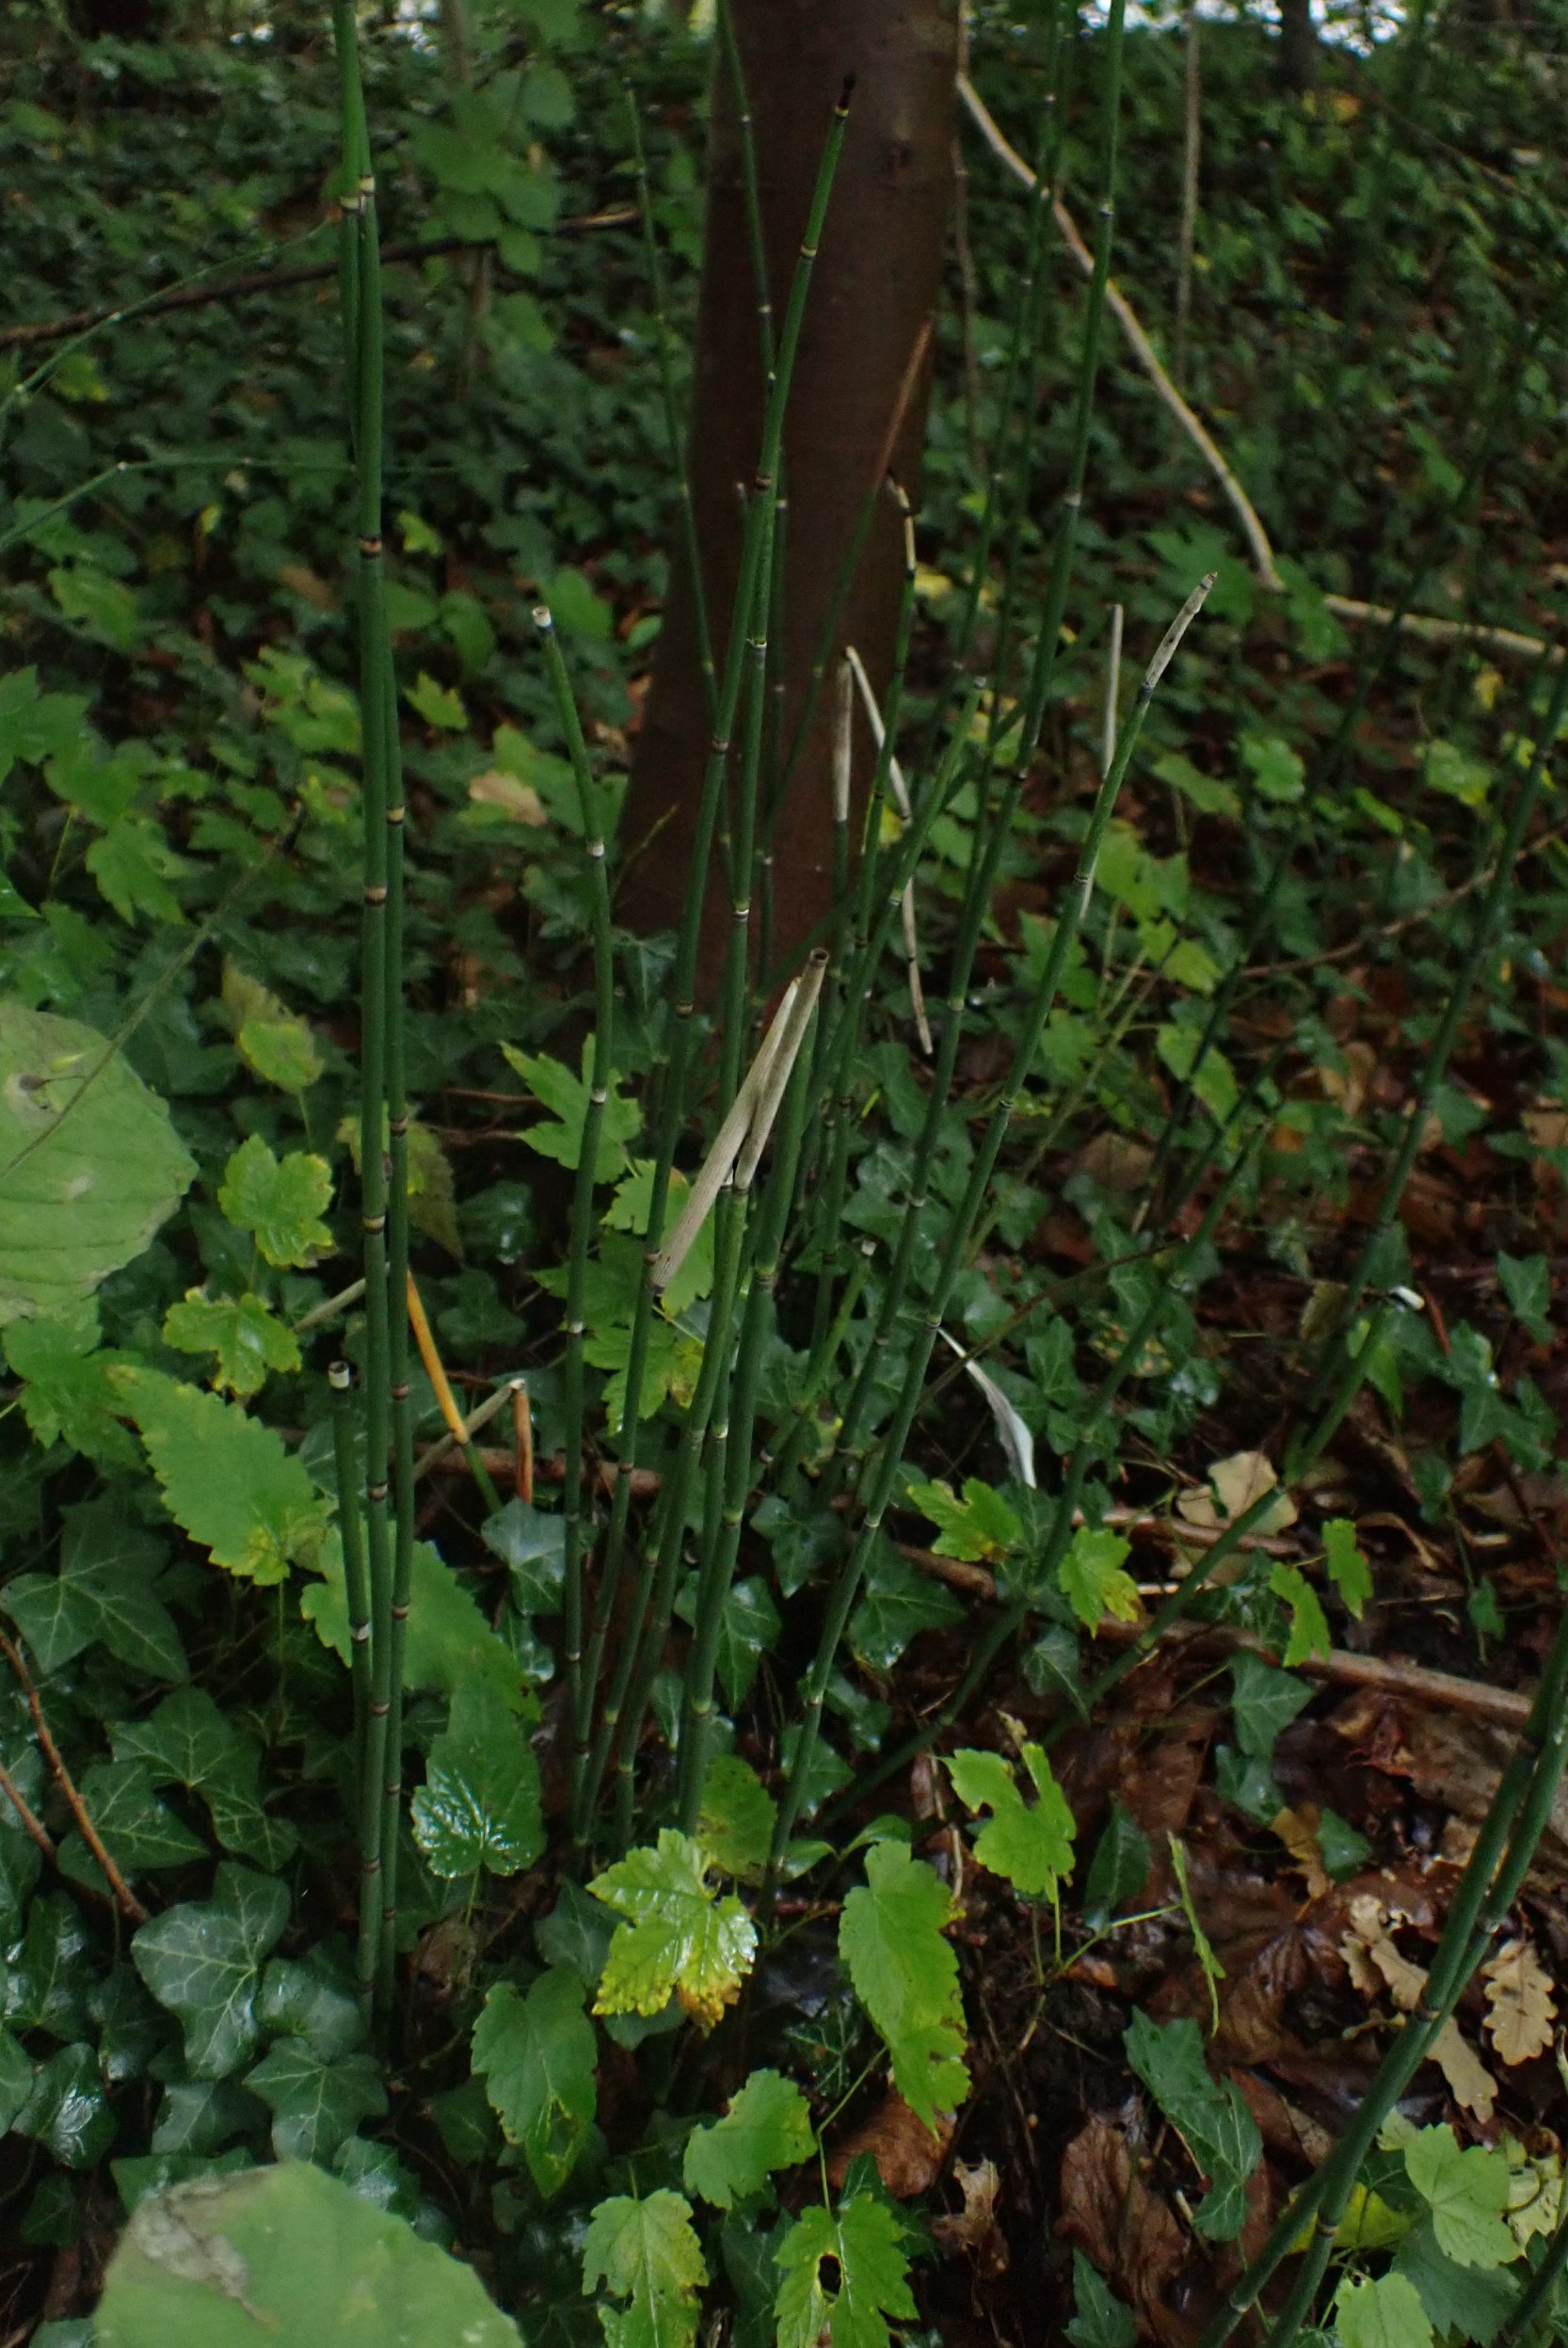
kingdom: Plantae
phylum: Tracheophyta
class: Polypodiopsida
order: Equisetales
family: Equisetaceae
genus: Equisetum
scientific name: Equisetum hyemale
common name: Skavgræs
